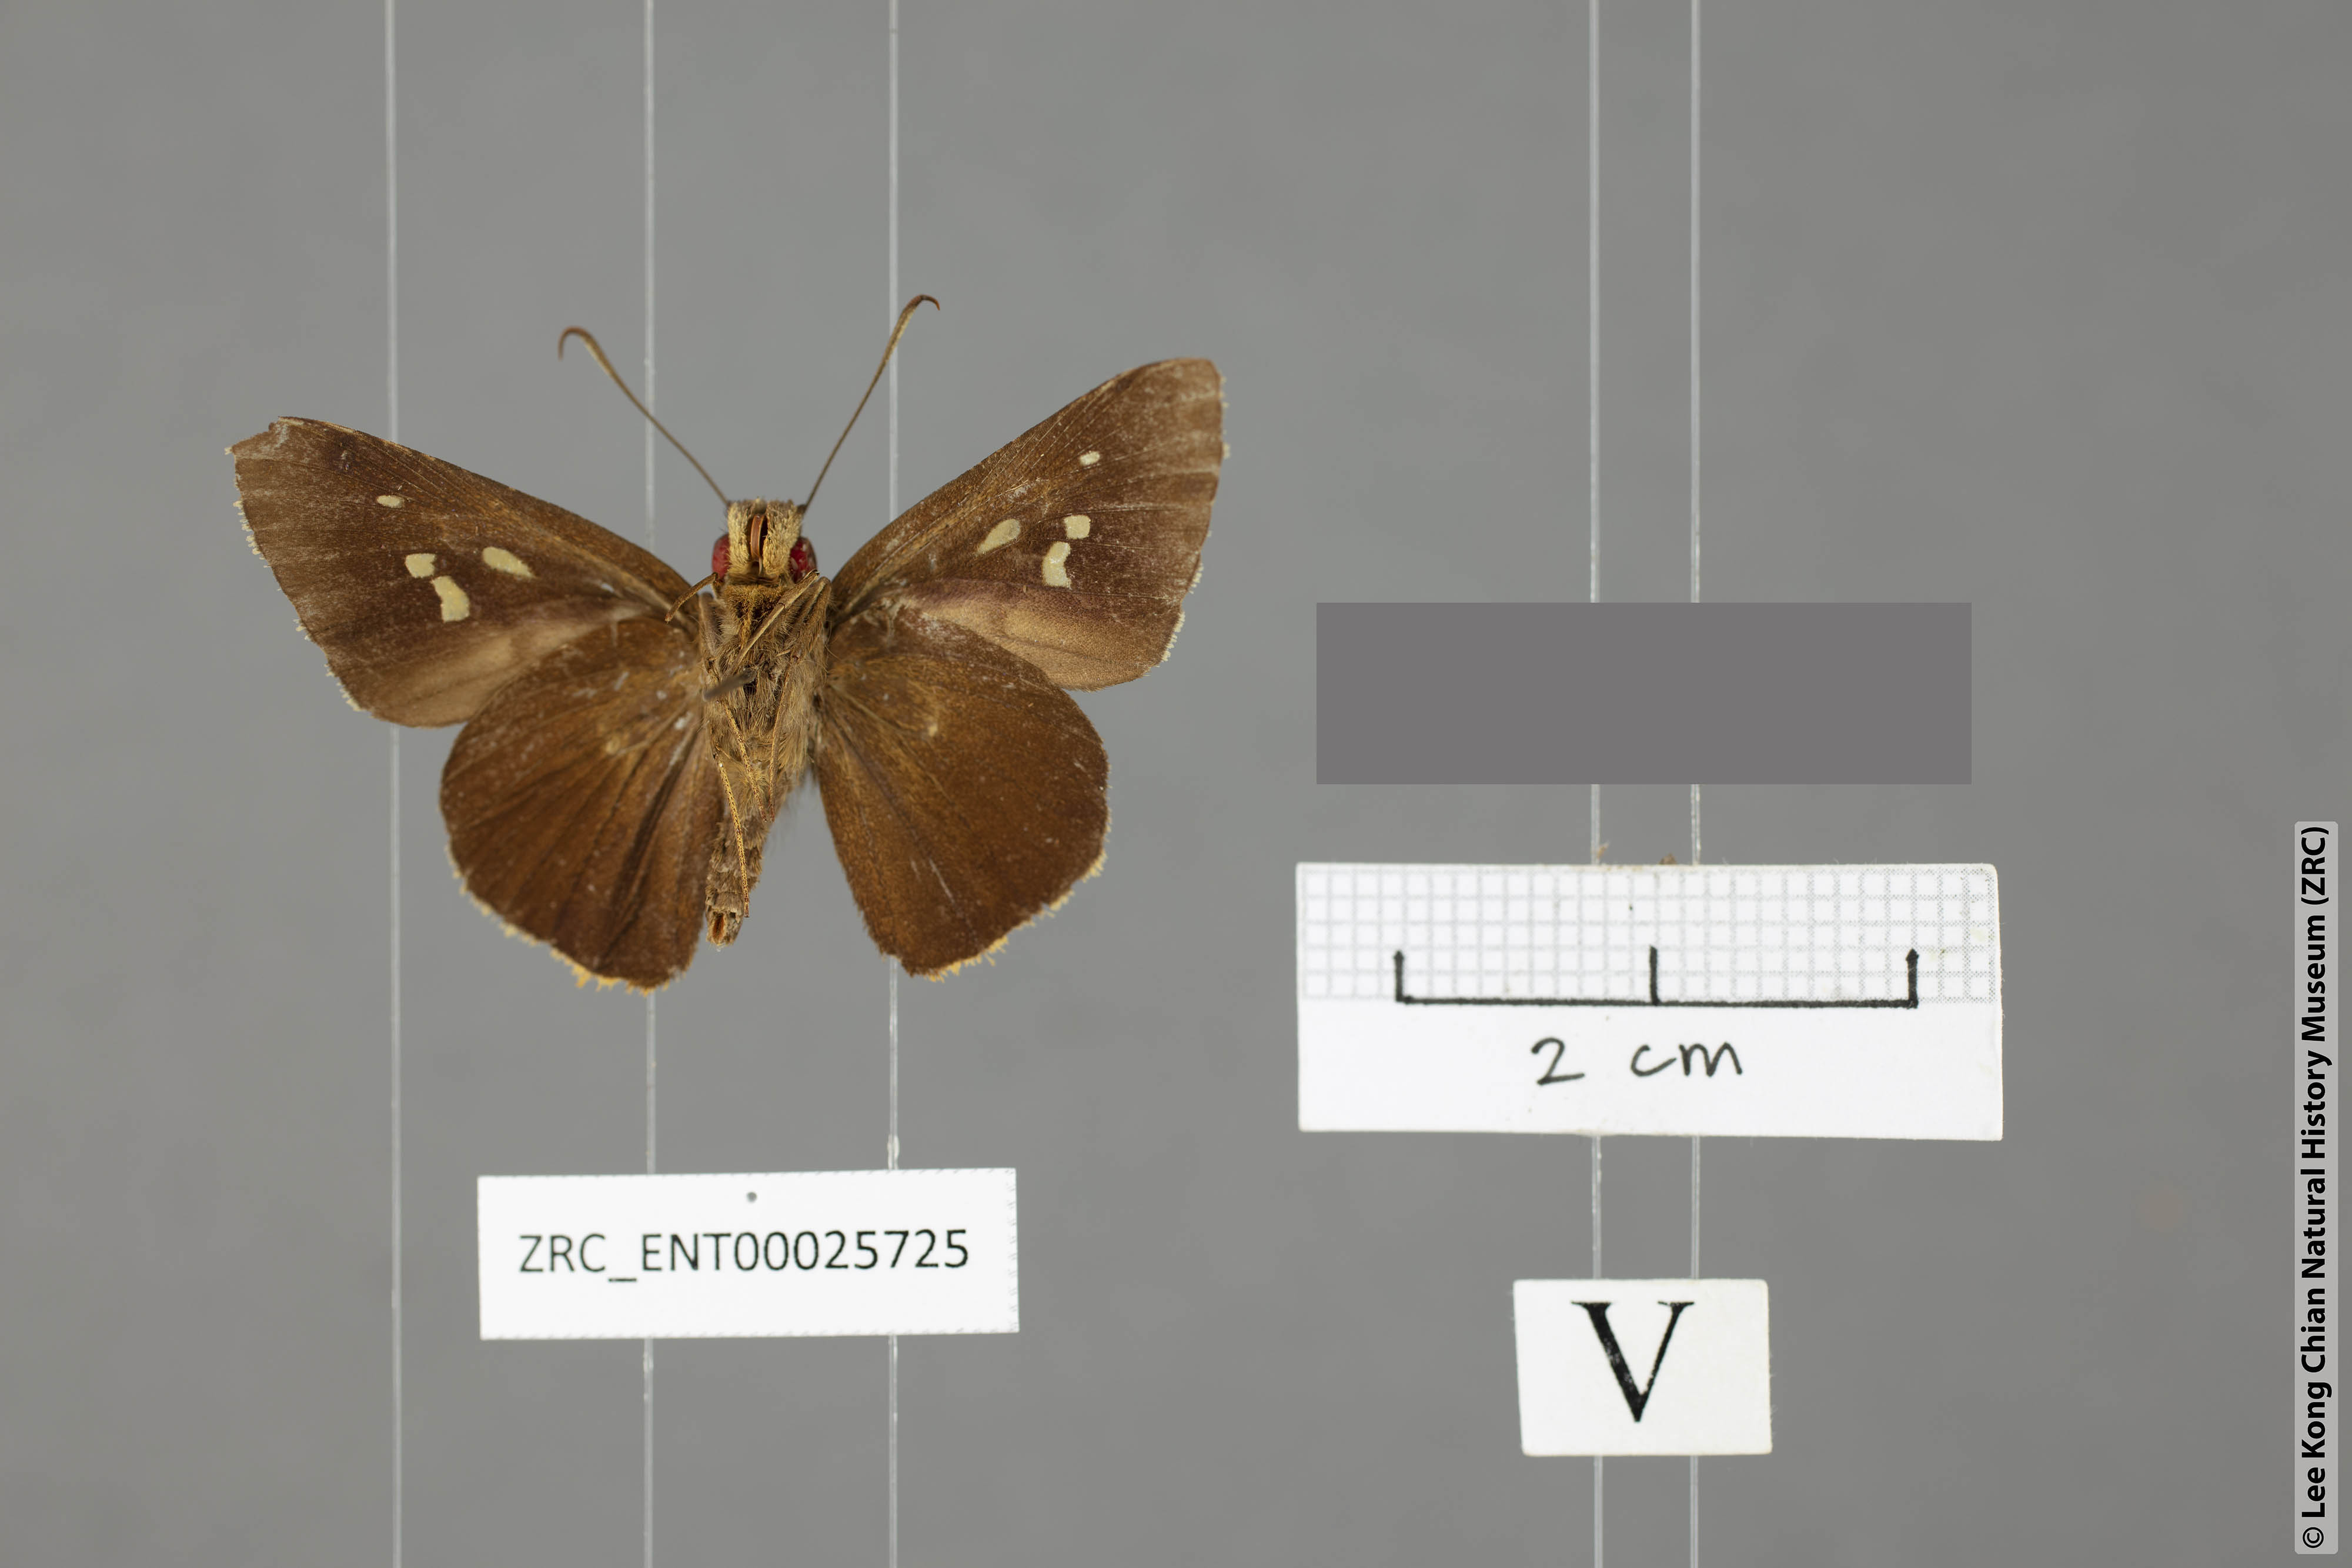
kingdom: Animalia
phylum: Arthropoda
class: Insecta
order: Lepidoptera
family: Hesperiidae
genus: Zela
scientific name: Zela zeus
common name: Orange-ciliate palmer
